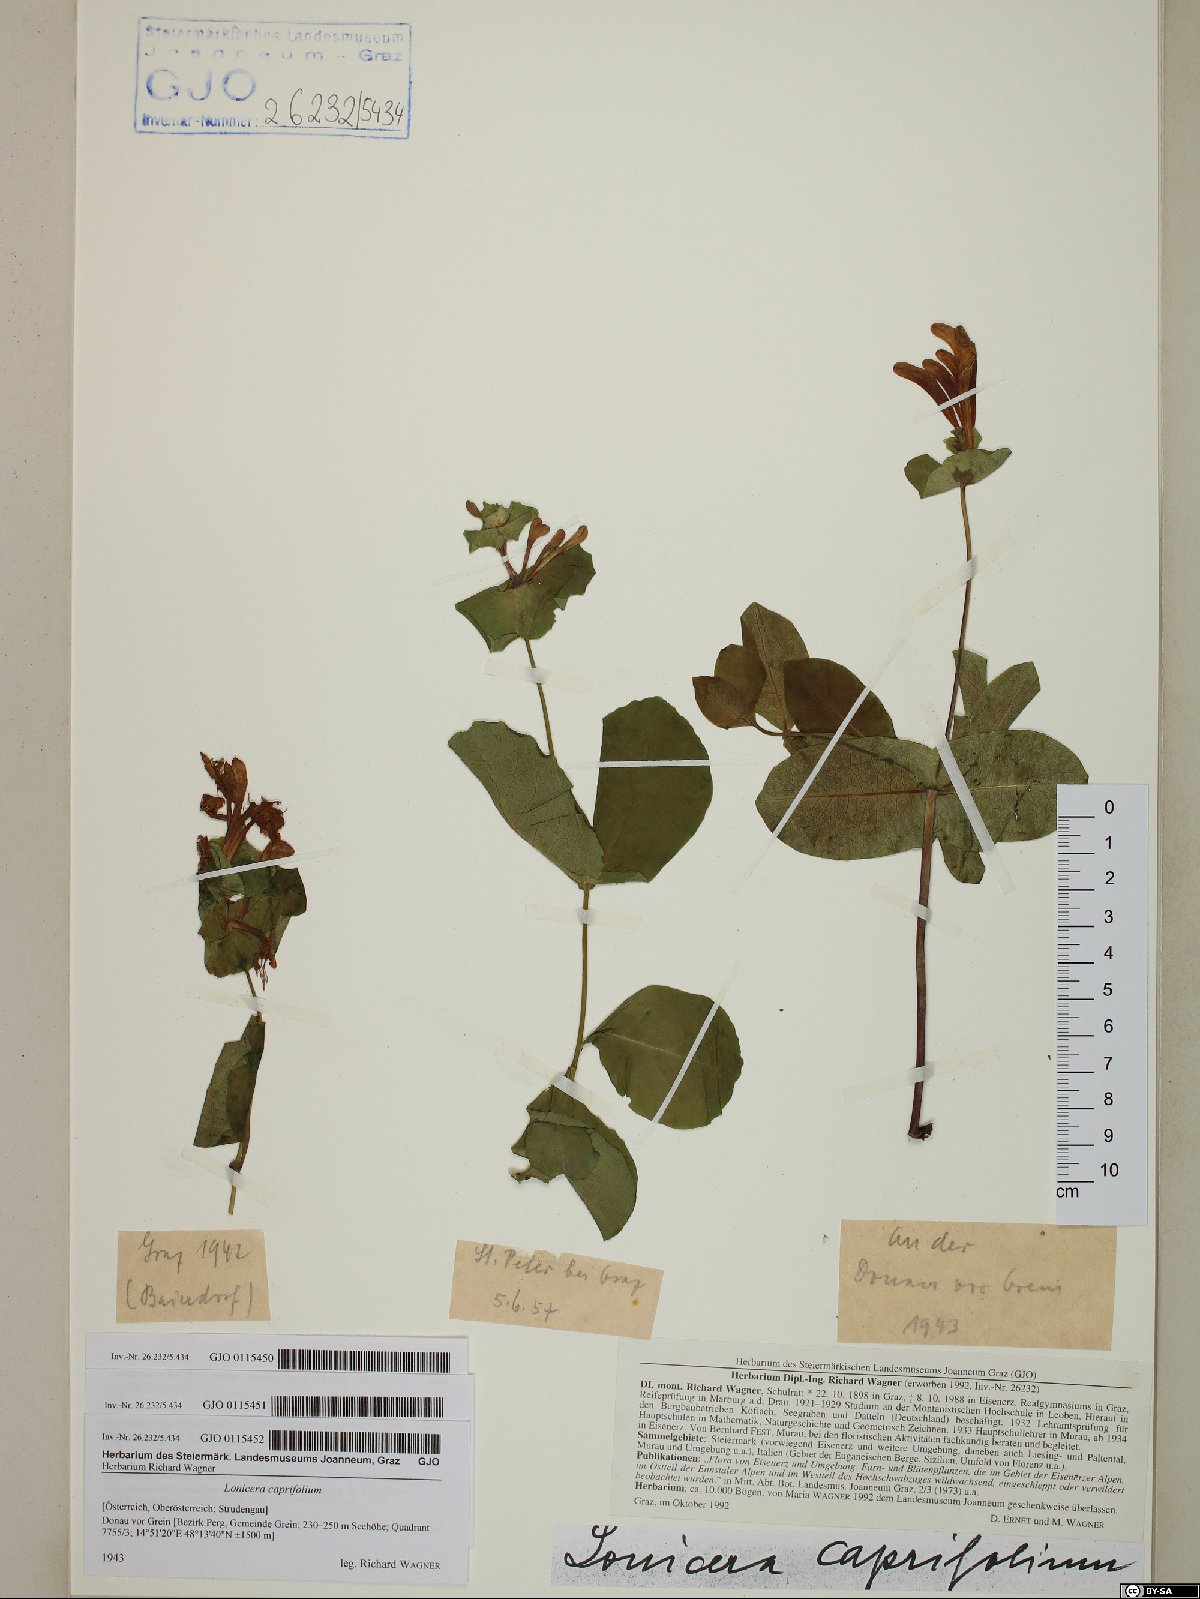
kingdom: Plantae
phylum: Tracheophyta
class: Magnoliopsida
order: Dipsacales
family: Caprifoliaceae
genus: Lonicera
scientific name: Lonicera caprifolium
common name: Perfoliate honeysuckle
